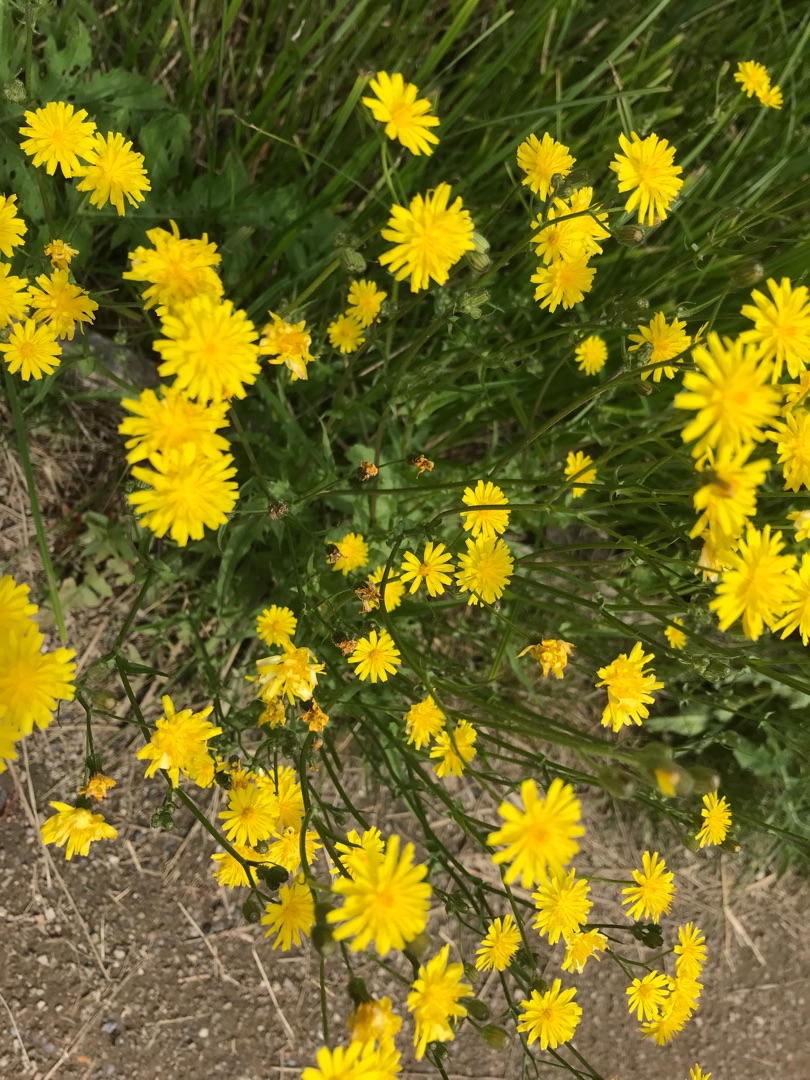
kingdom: Plantae
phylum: Tracheophyta
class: Magnoliopsida
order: Asterales
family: Asteraceae
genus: Crepis
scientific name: Crepis capillaris
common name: Grøn høgeskæg
